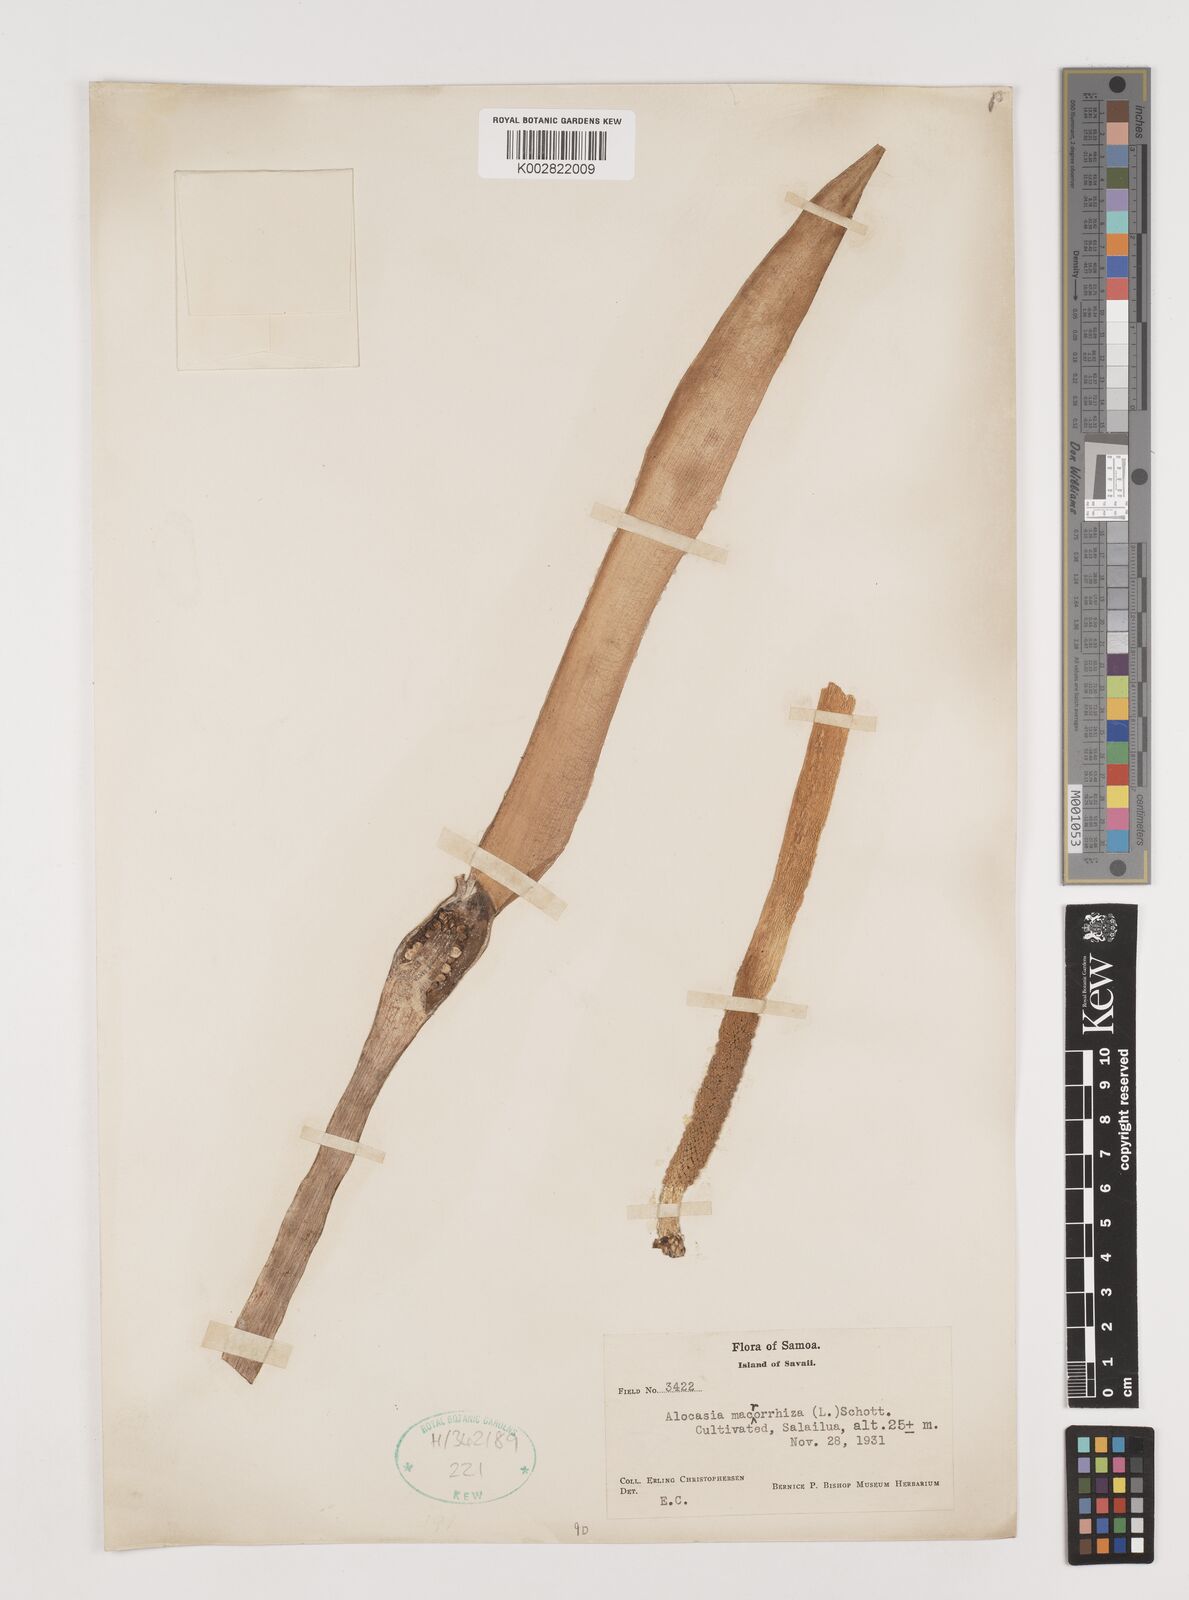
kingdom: Plantae
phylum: Tracheophyta
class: Liliopsida
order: Alismatales
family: Araceae
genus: Alocasia
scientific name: Alocasia macrorrhizos
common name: Giant taro
